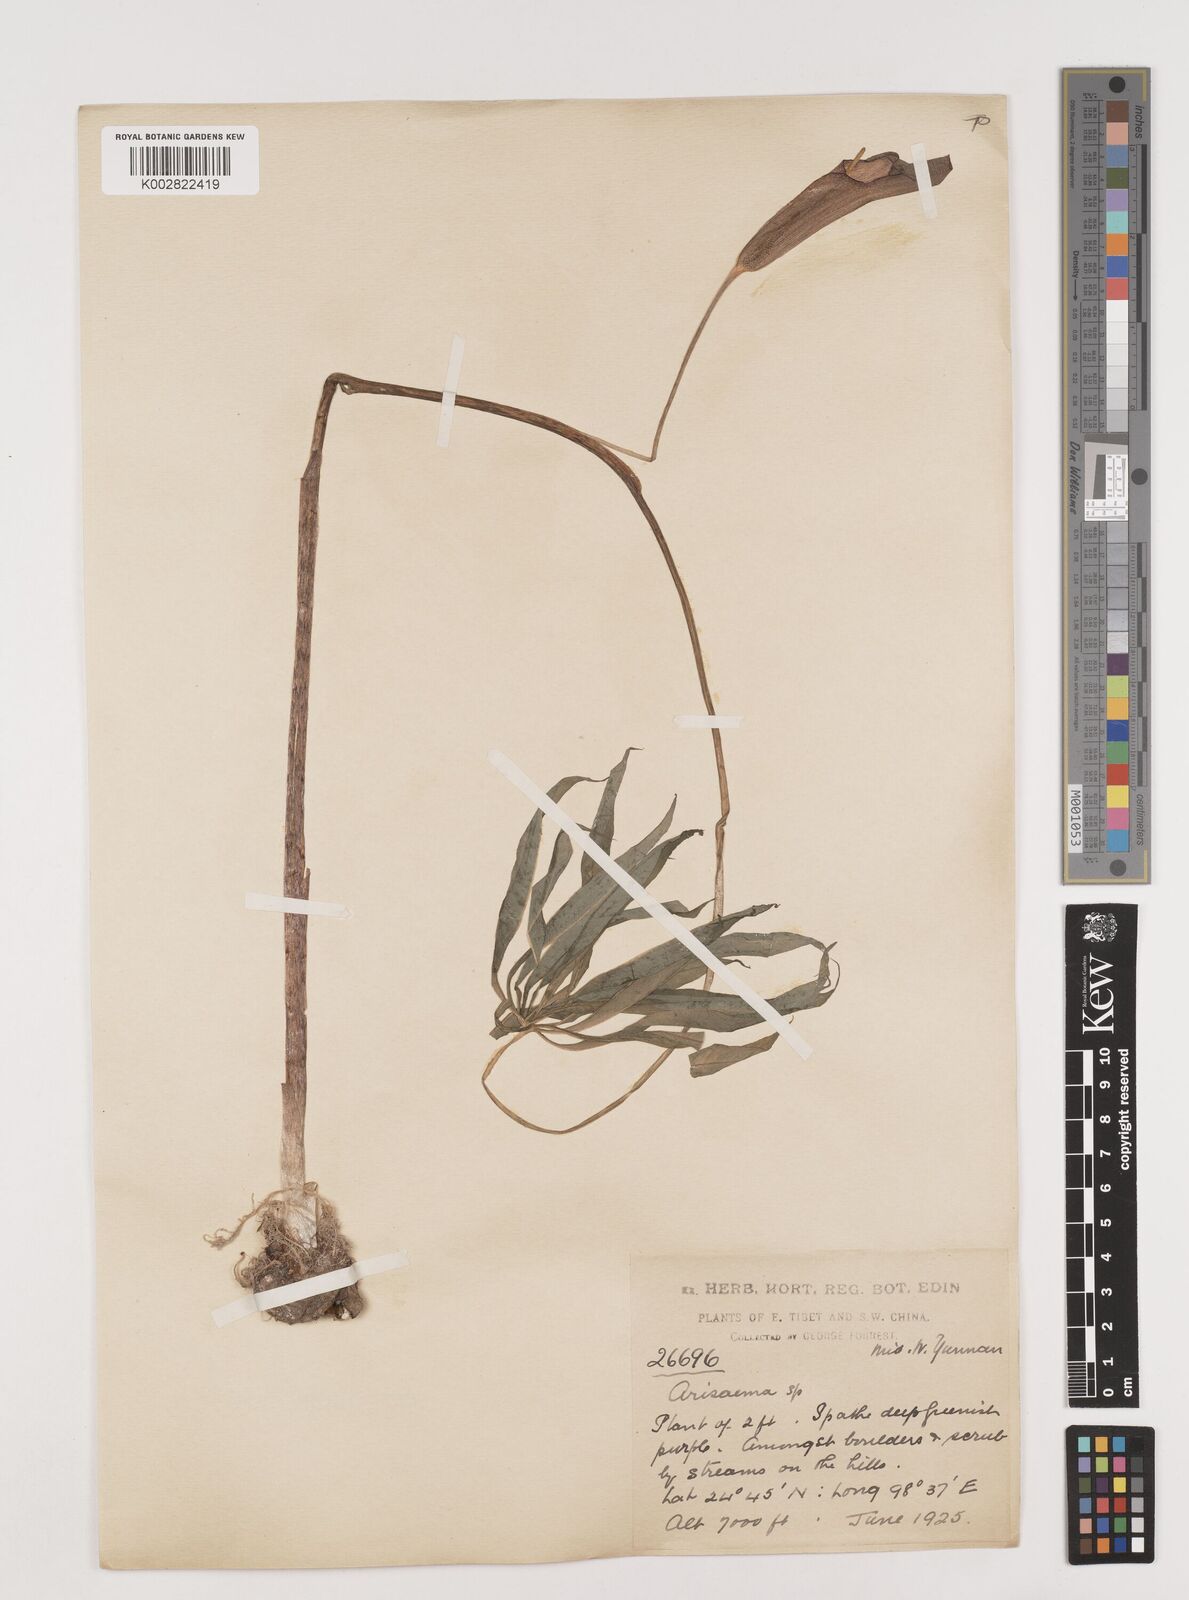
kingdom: Plantae
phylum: Tracheophyta
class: Liliopsida
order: Alismatales
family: Araceae
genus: Arisaema
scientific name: Arisaema erubescens
